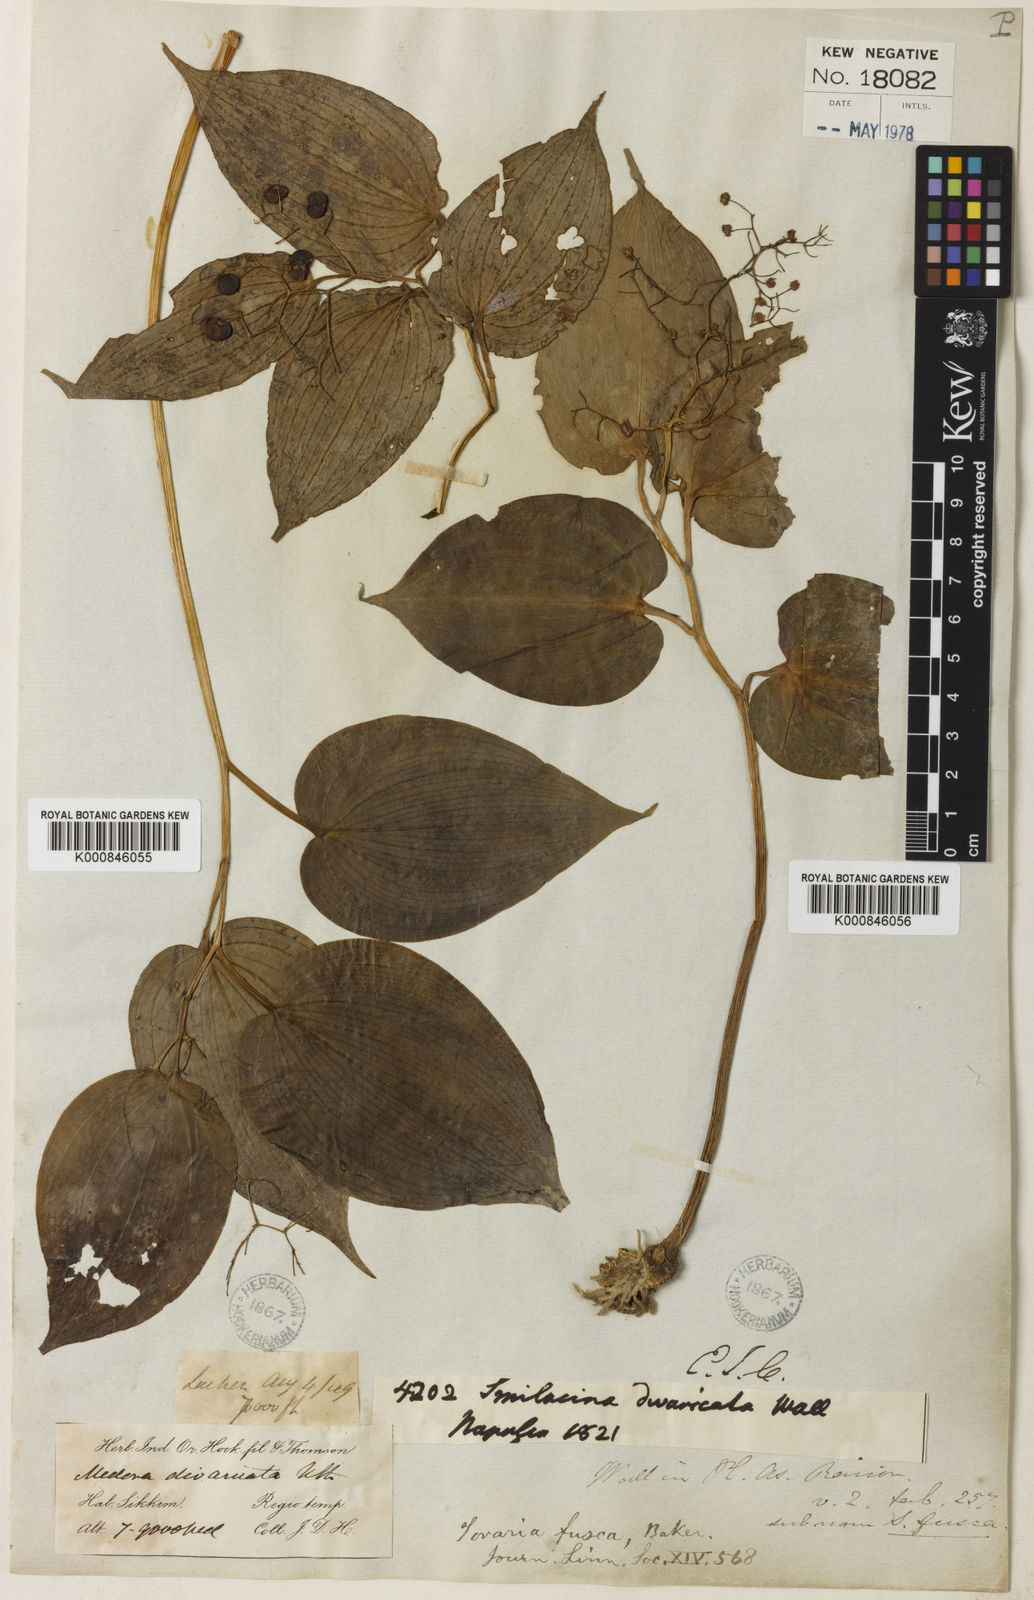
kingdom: Plantae
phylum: Tracheophyta
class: Liliopsida
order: Asparagales
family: Asparagaceae
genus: Maianthemum
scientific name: Maianthemum fuscum
